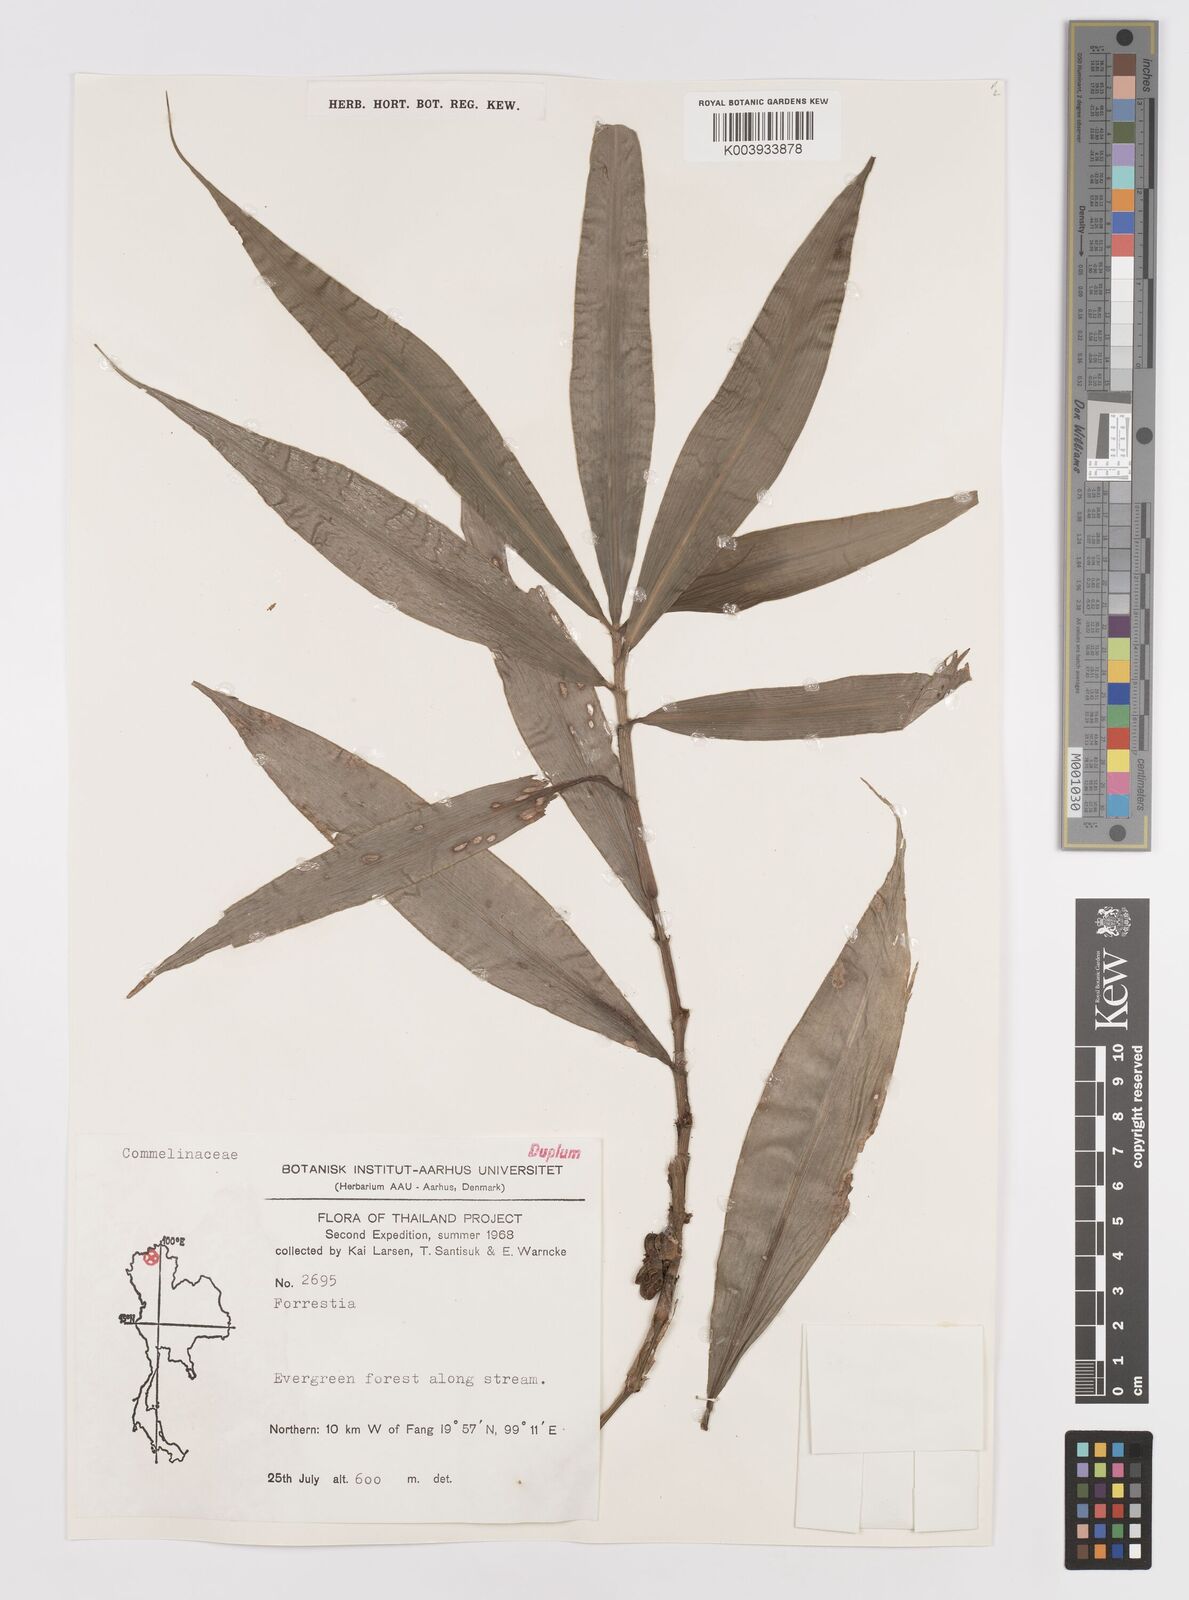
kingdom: Plantae
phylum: Tracheophyta
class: Liliopsida
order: Commelinales
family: Commelinaceae
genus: Amischotolype
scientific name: Amischotolype
